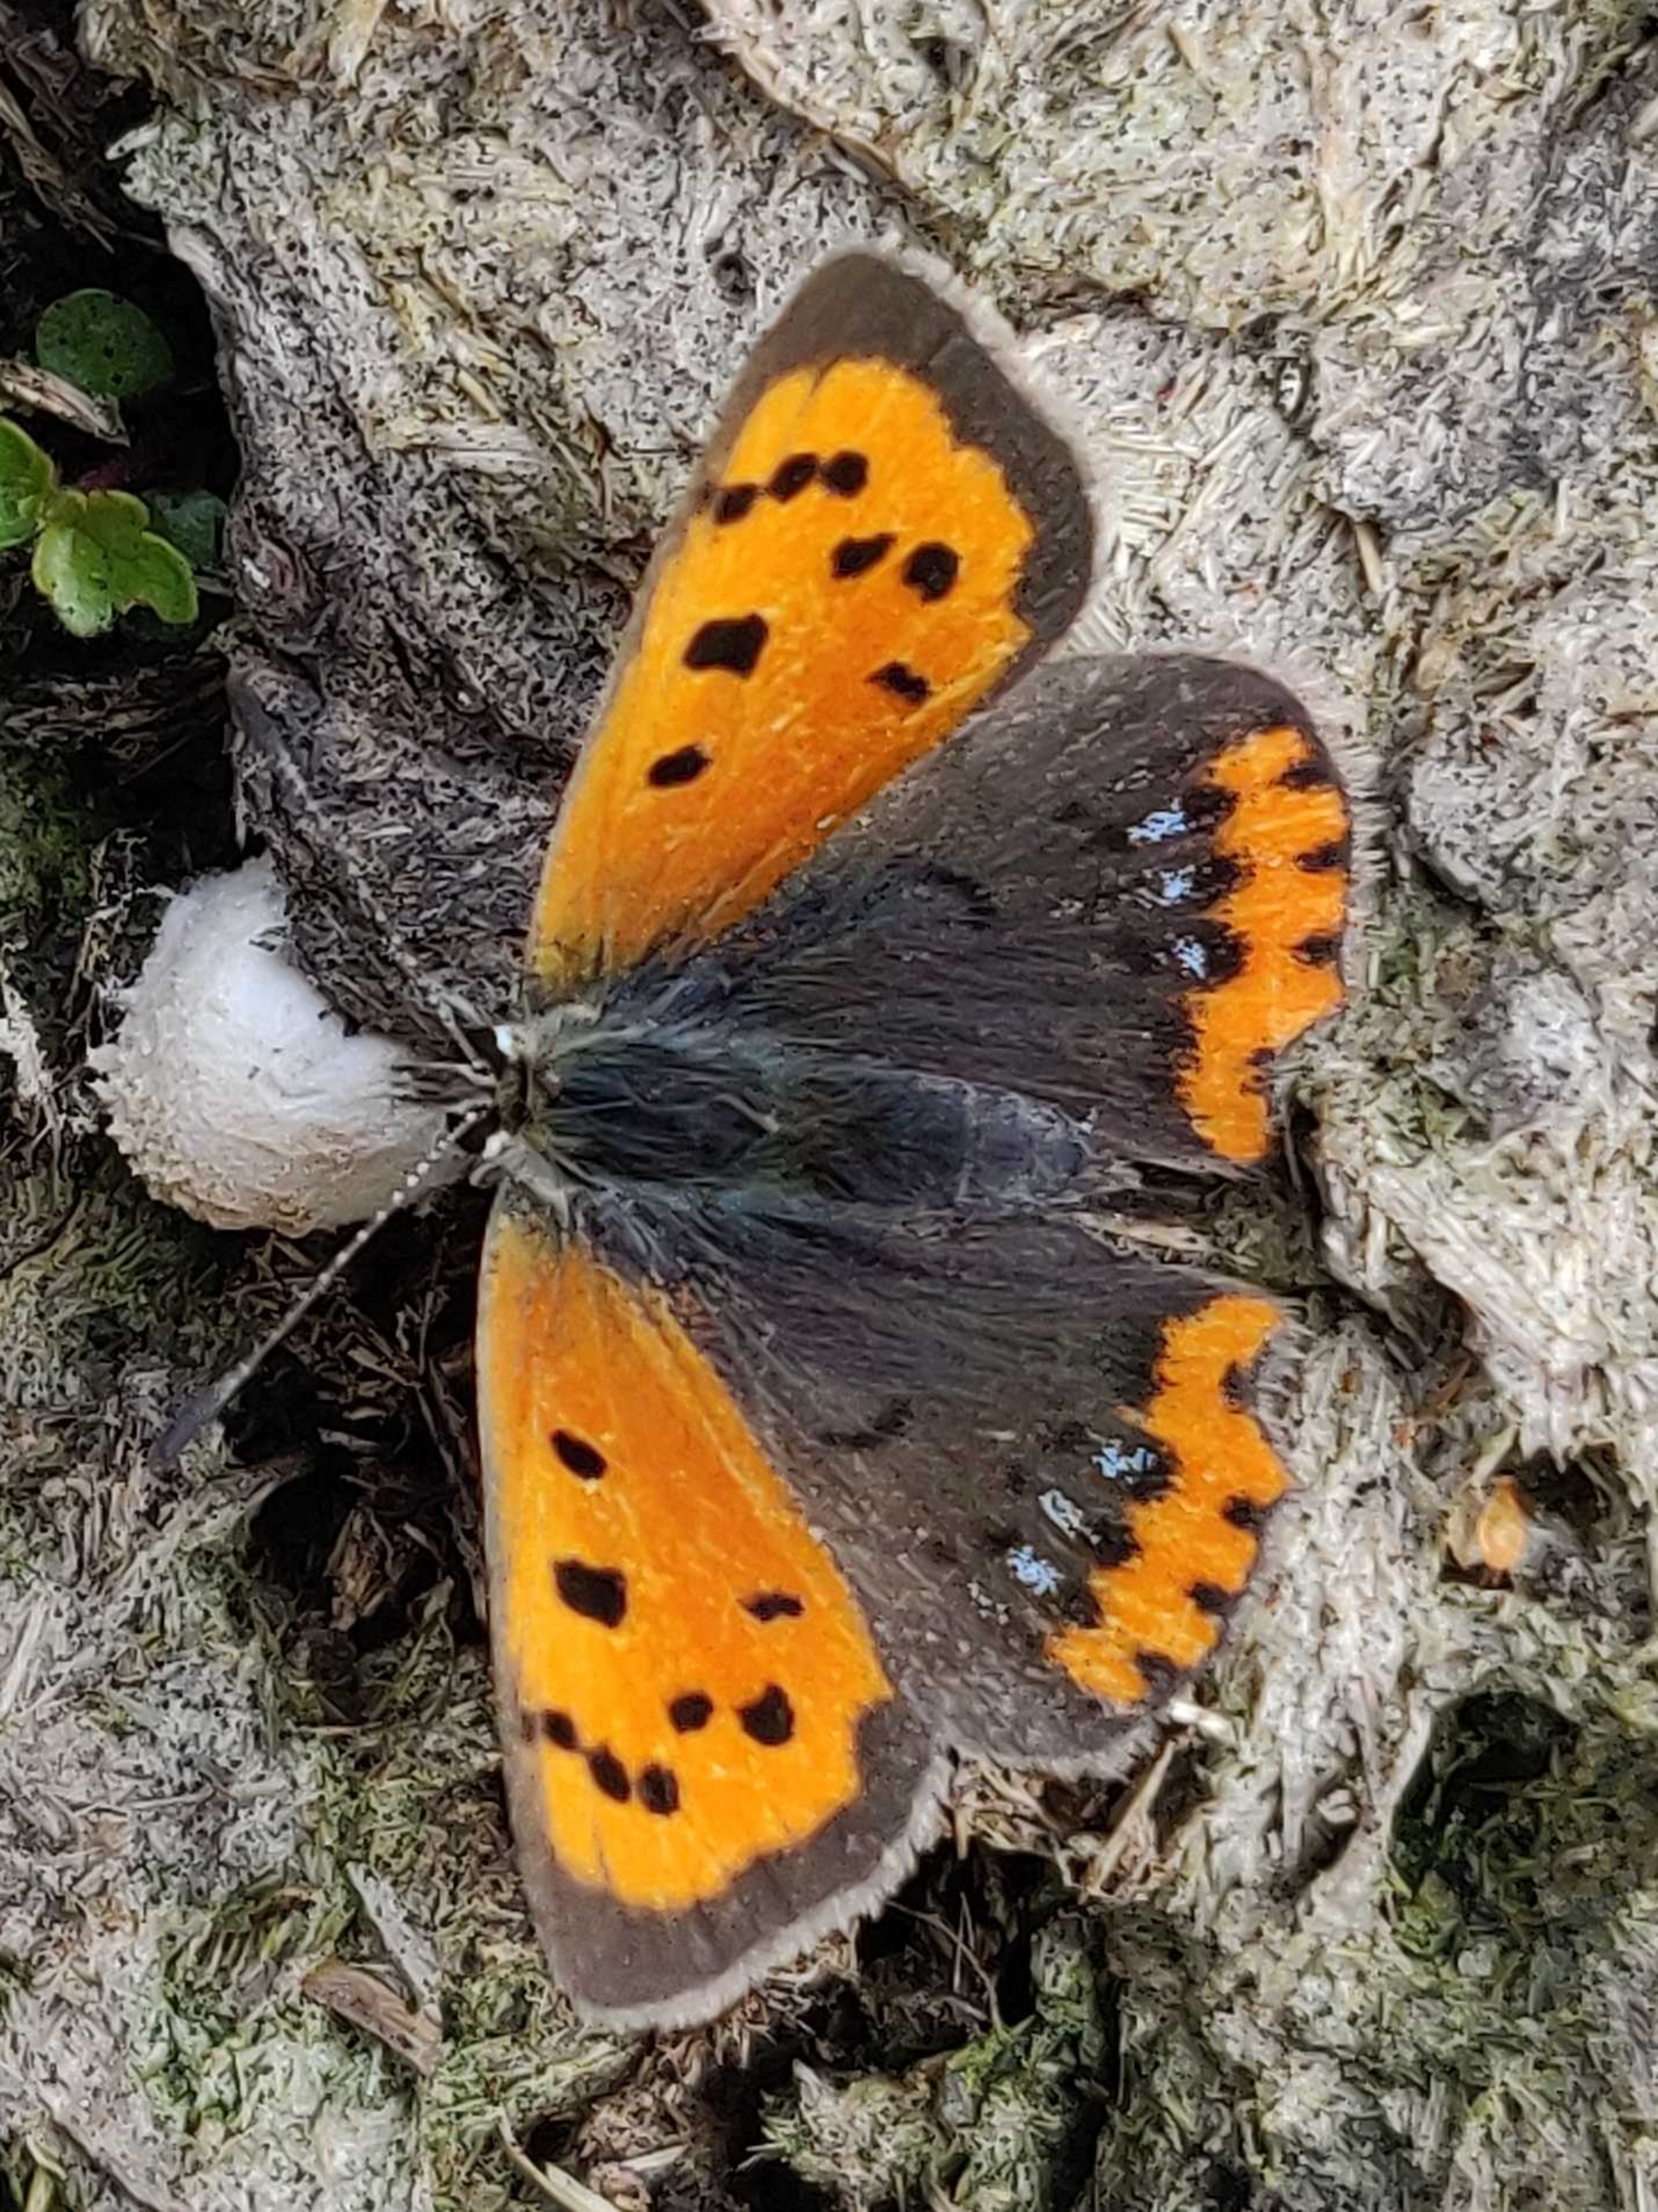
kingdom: Animalia
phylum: Arthropoda
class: Insecta
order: Lepidoptera
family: Lycaenidae
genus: Lycaena
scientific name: Lycaena phlaeas
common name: Lille ildfugl
